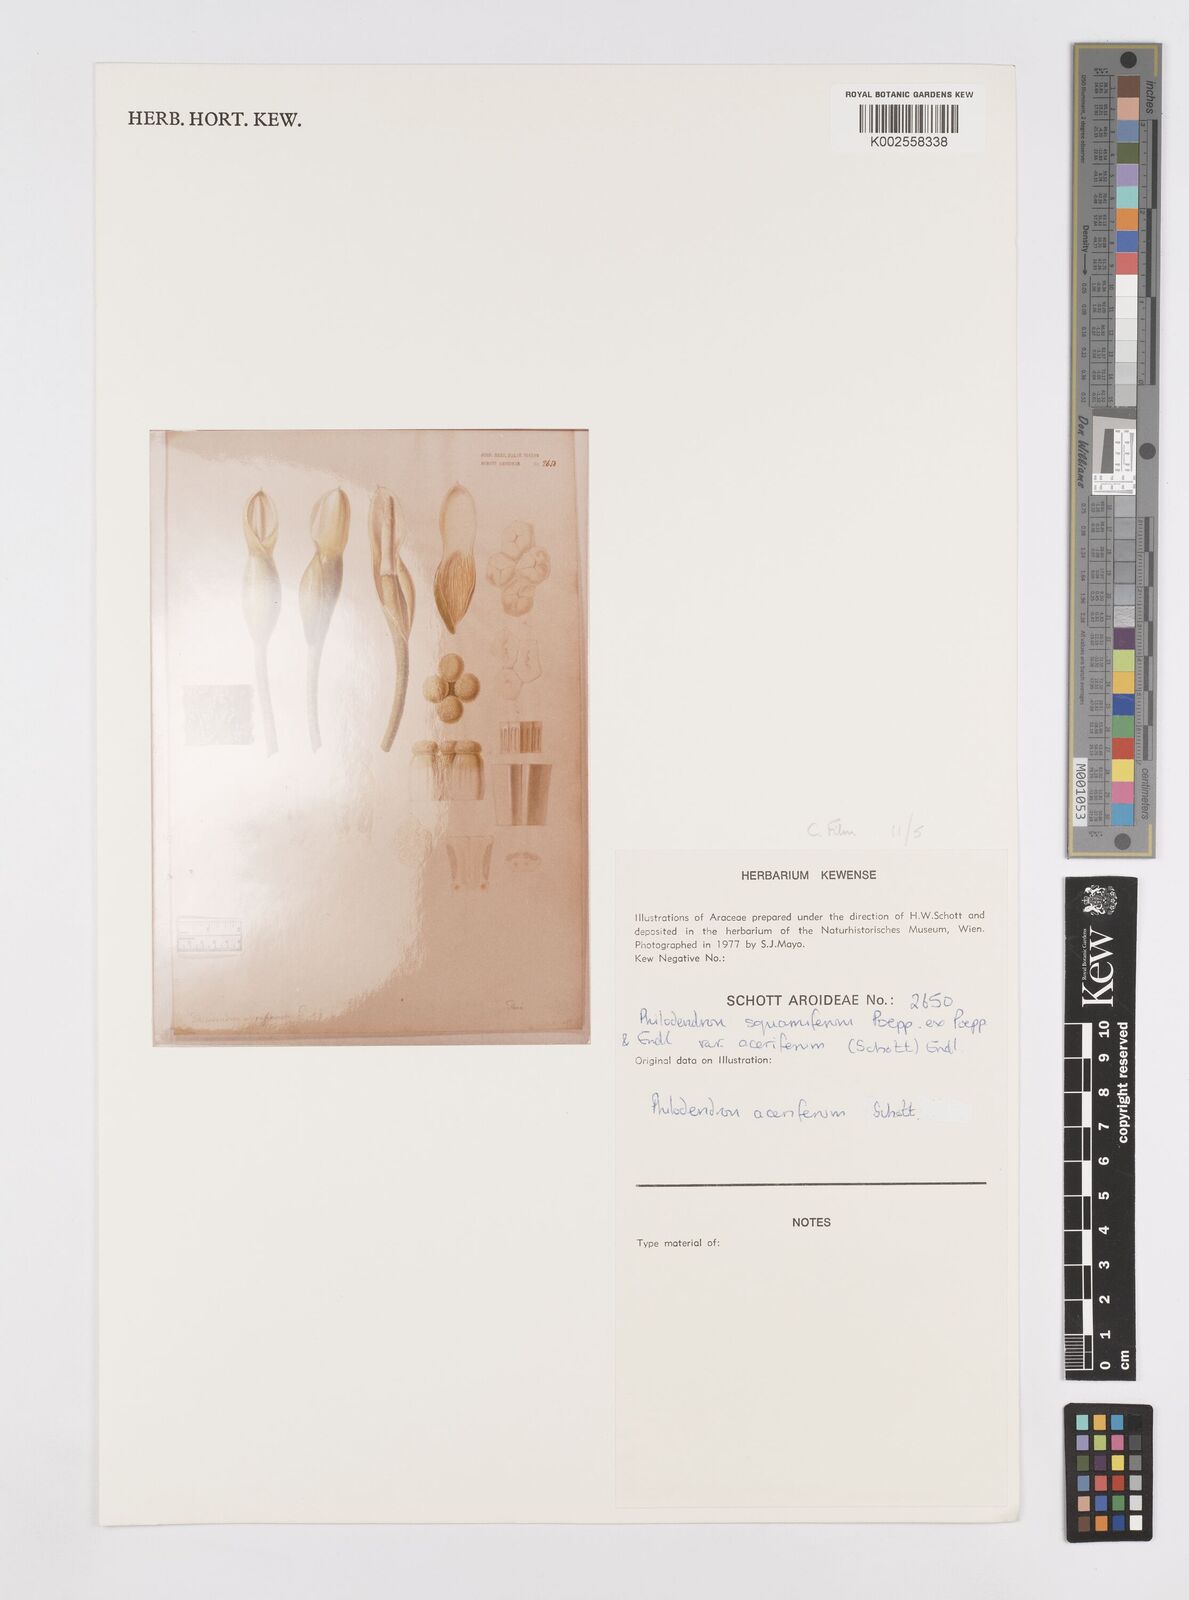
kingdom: Plantae
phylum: Tracheophyta
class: Liliopsida
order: Alismatales
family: Araceae
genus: Philodendron
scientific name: Philodendron squamiferum
